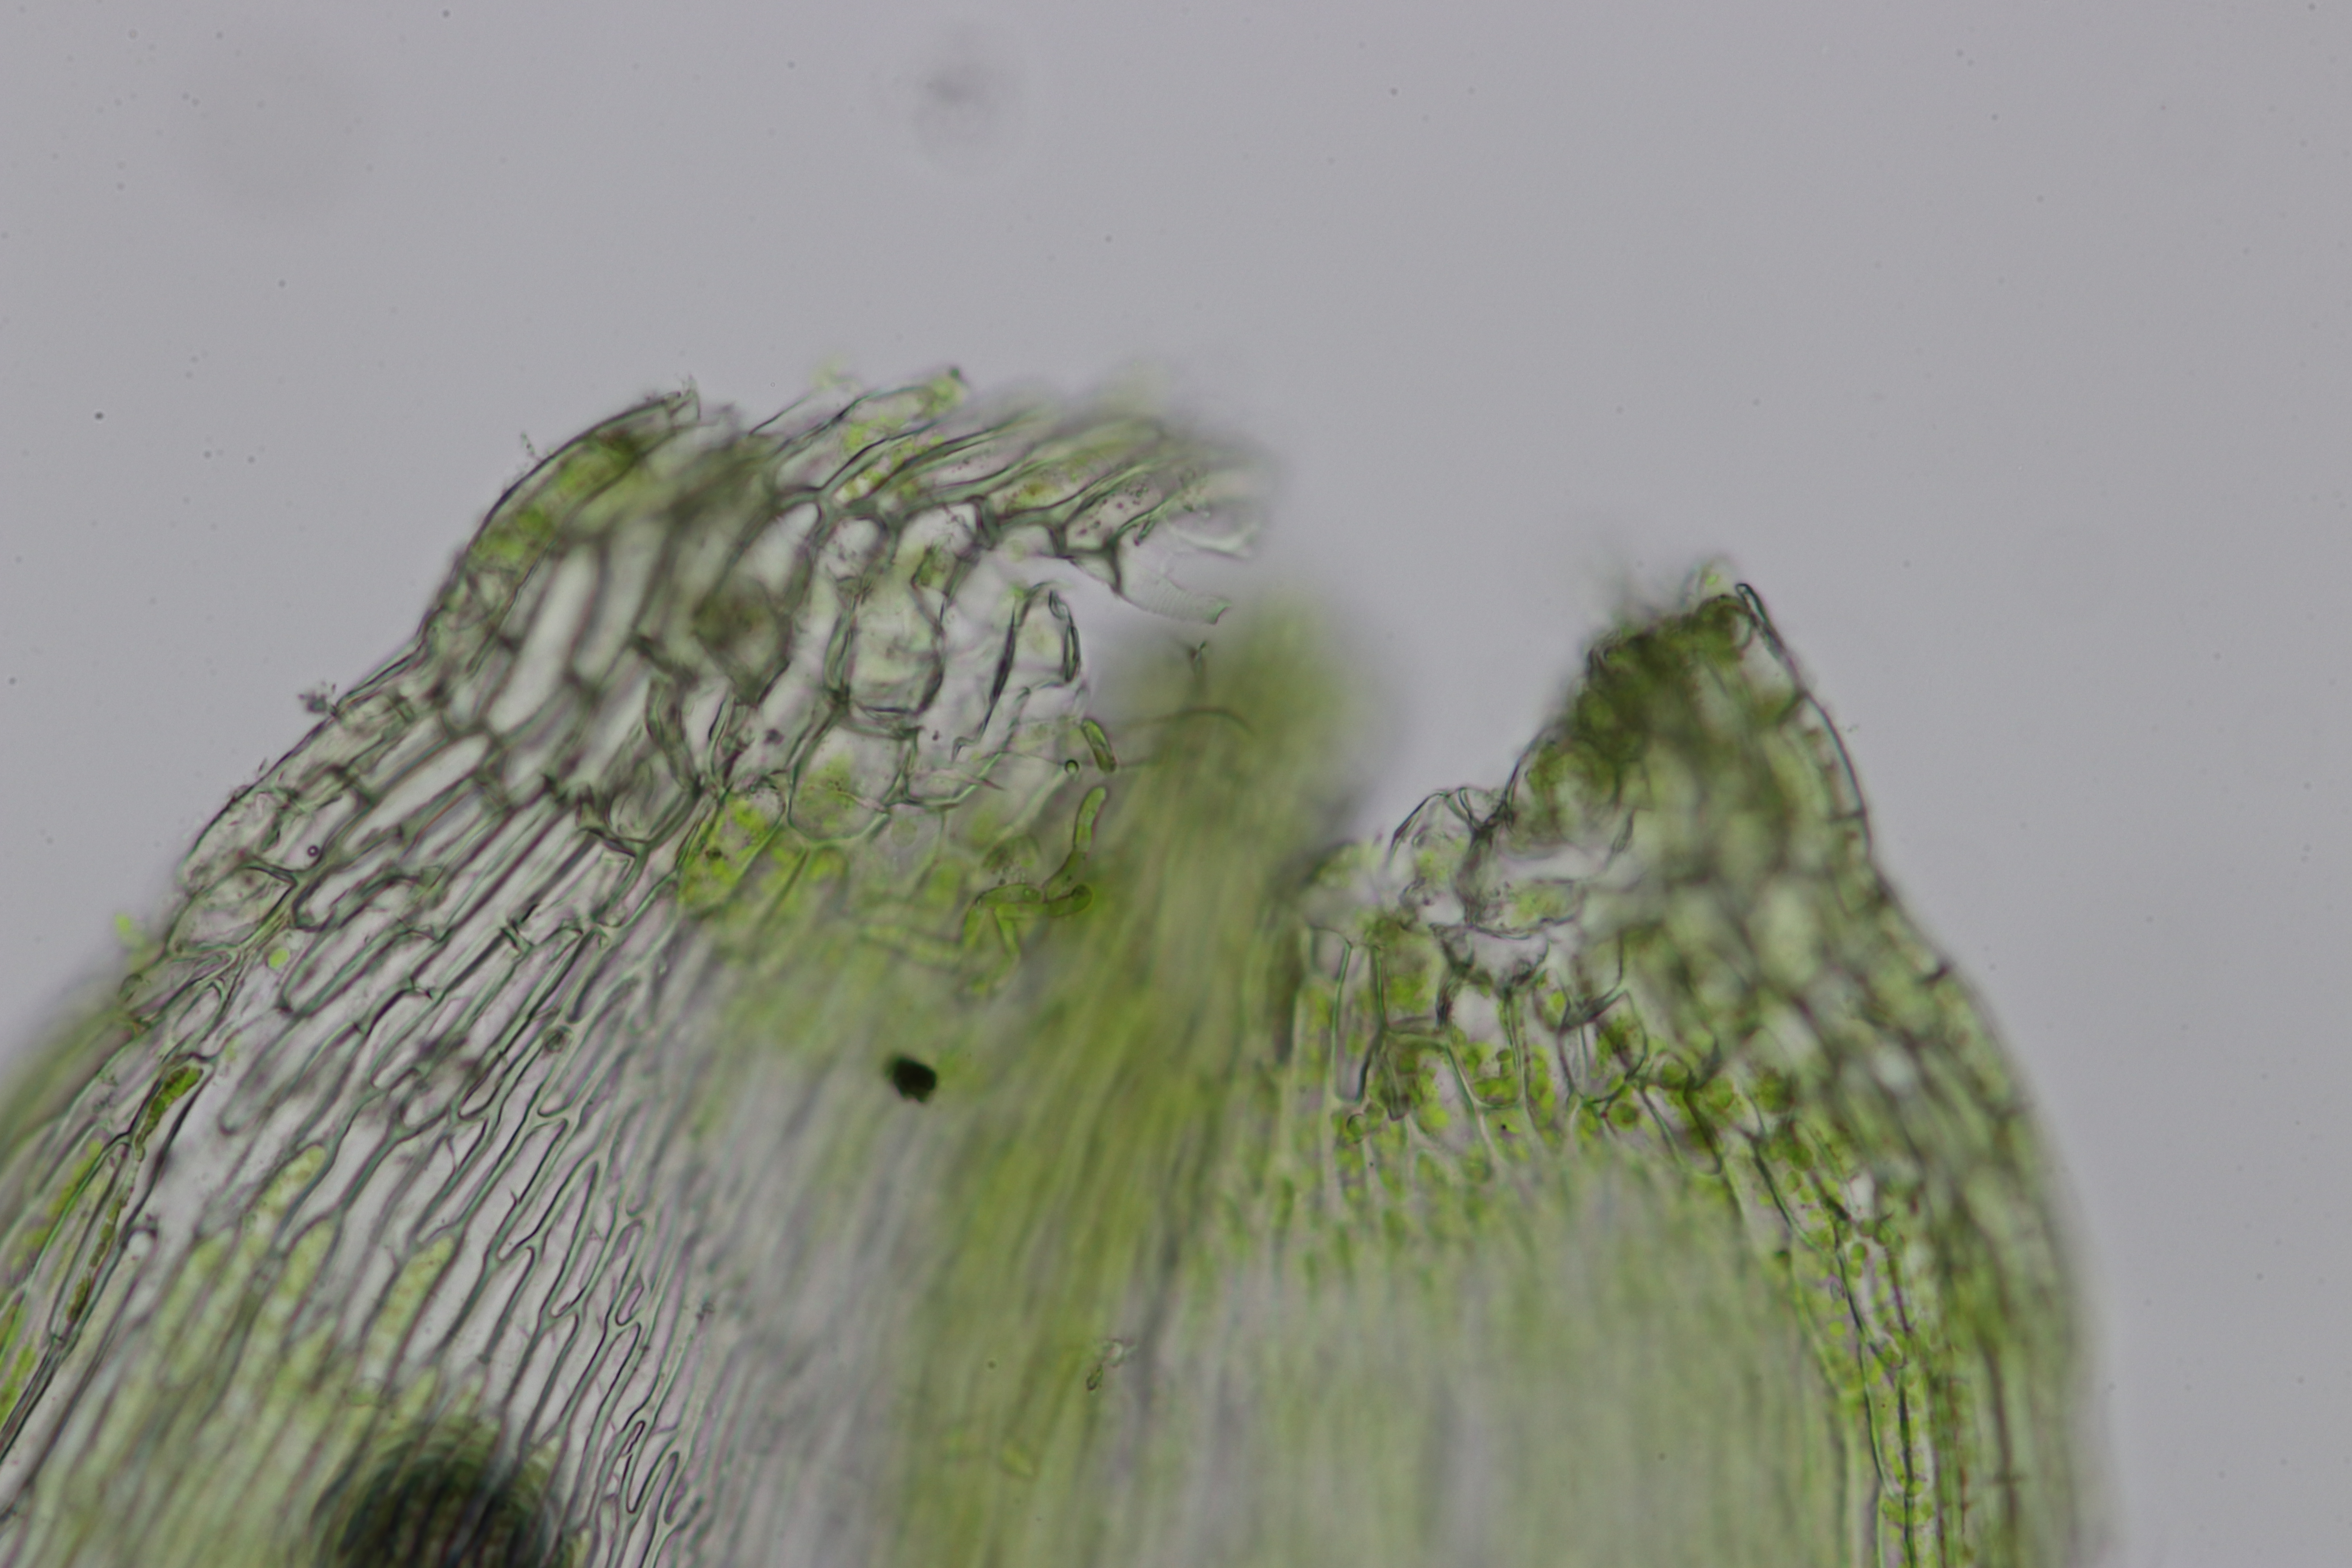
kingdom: Plantae
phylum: Bryophyta
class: Bryopsida
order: Hypnales
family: Brachytheciaceae
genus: Rhynchostegium
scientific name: Rhynchostegium murale
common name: Mur-langnæb
